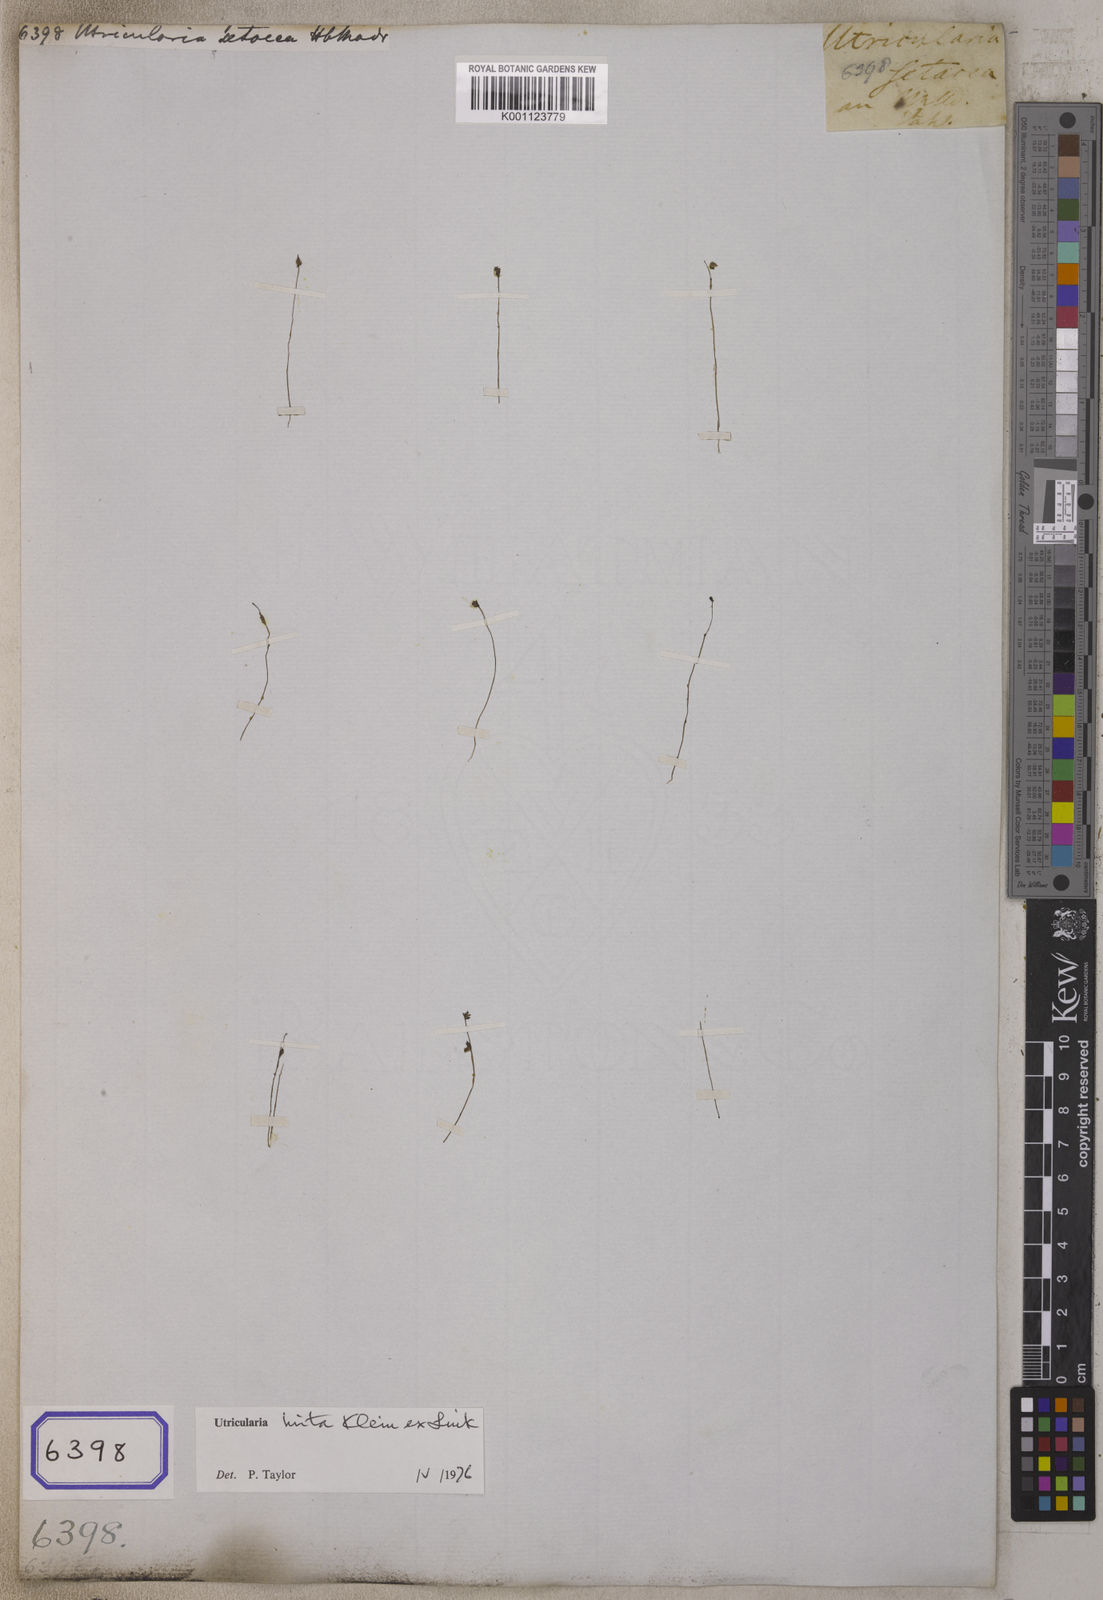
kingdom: Plantae
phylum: Tracheophyta
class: Magnoliopsida
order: Lamiales
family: Lentibulariaceae
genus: Utricularia
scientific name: Utricularia hirta
